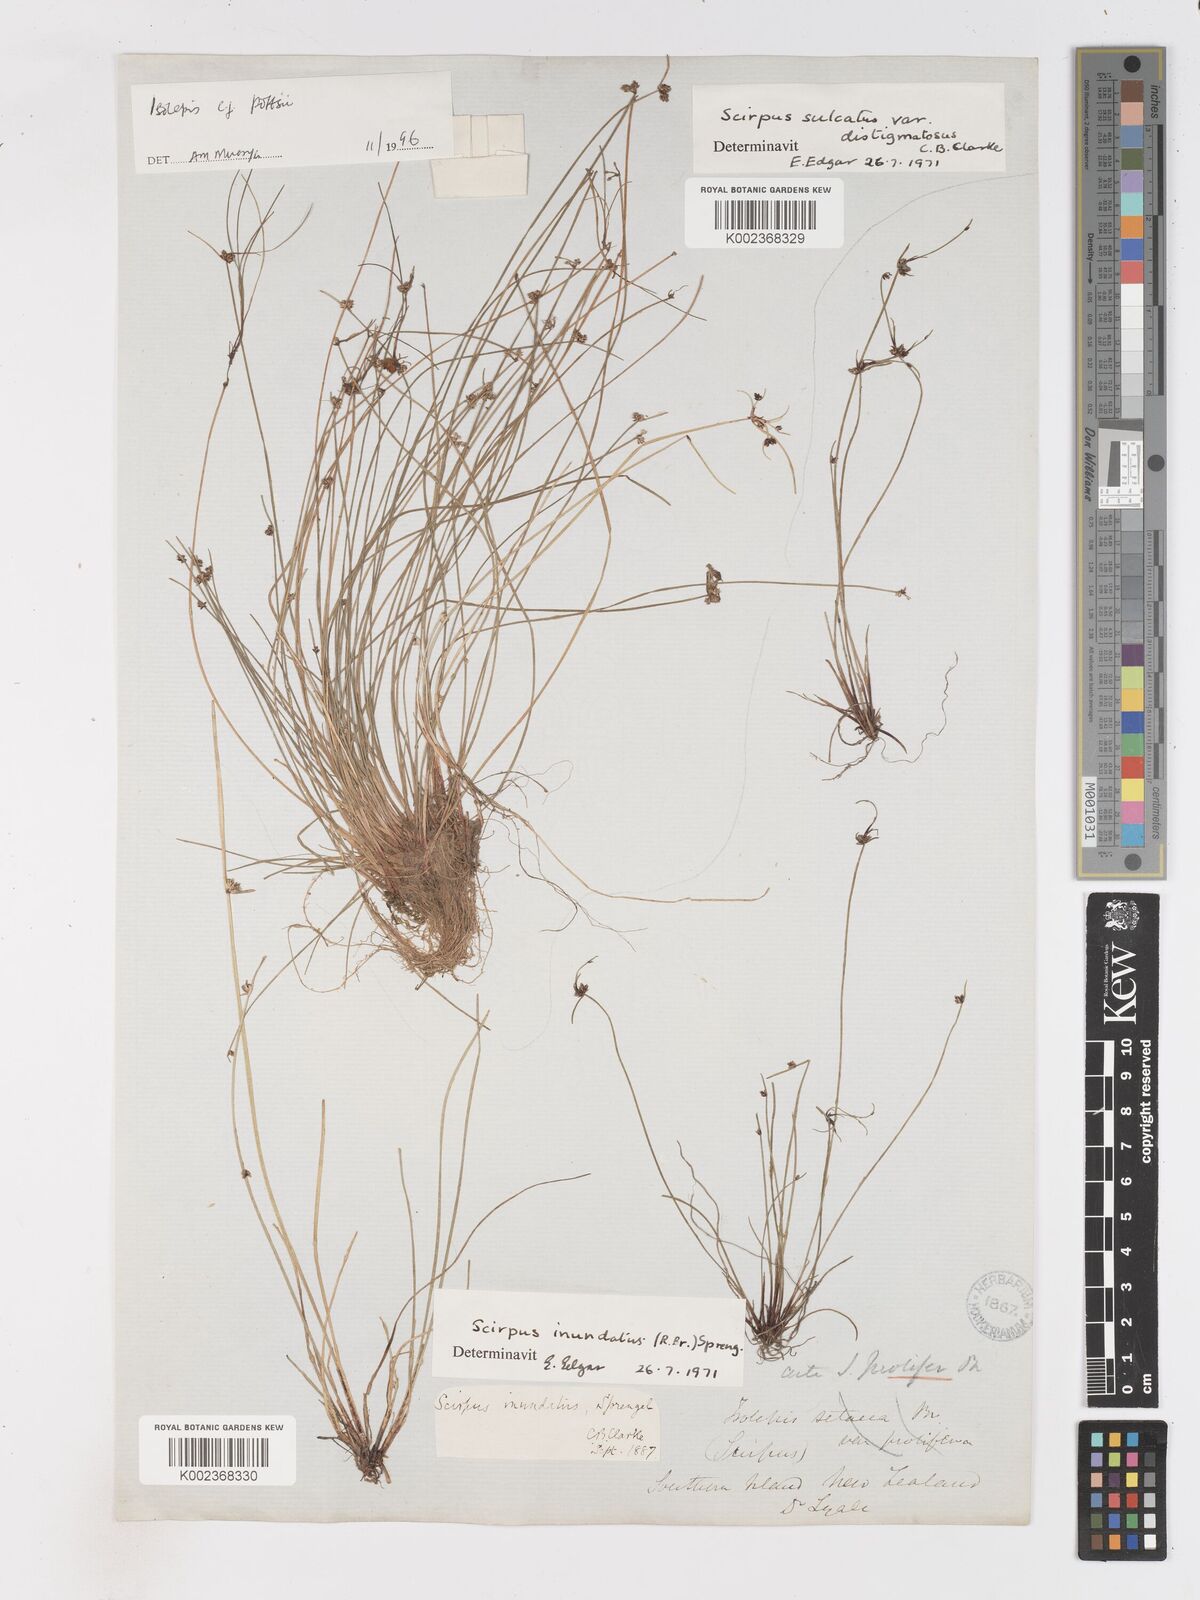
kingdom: Plantae
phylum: Tracheophyta
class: Liliopsida
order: Poales
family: Cyperaceae
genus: Isolepis
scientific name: Isolepis pottsii
